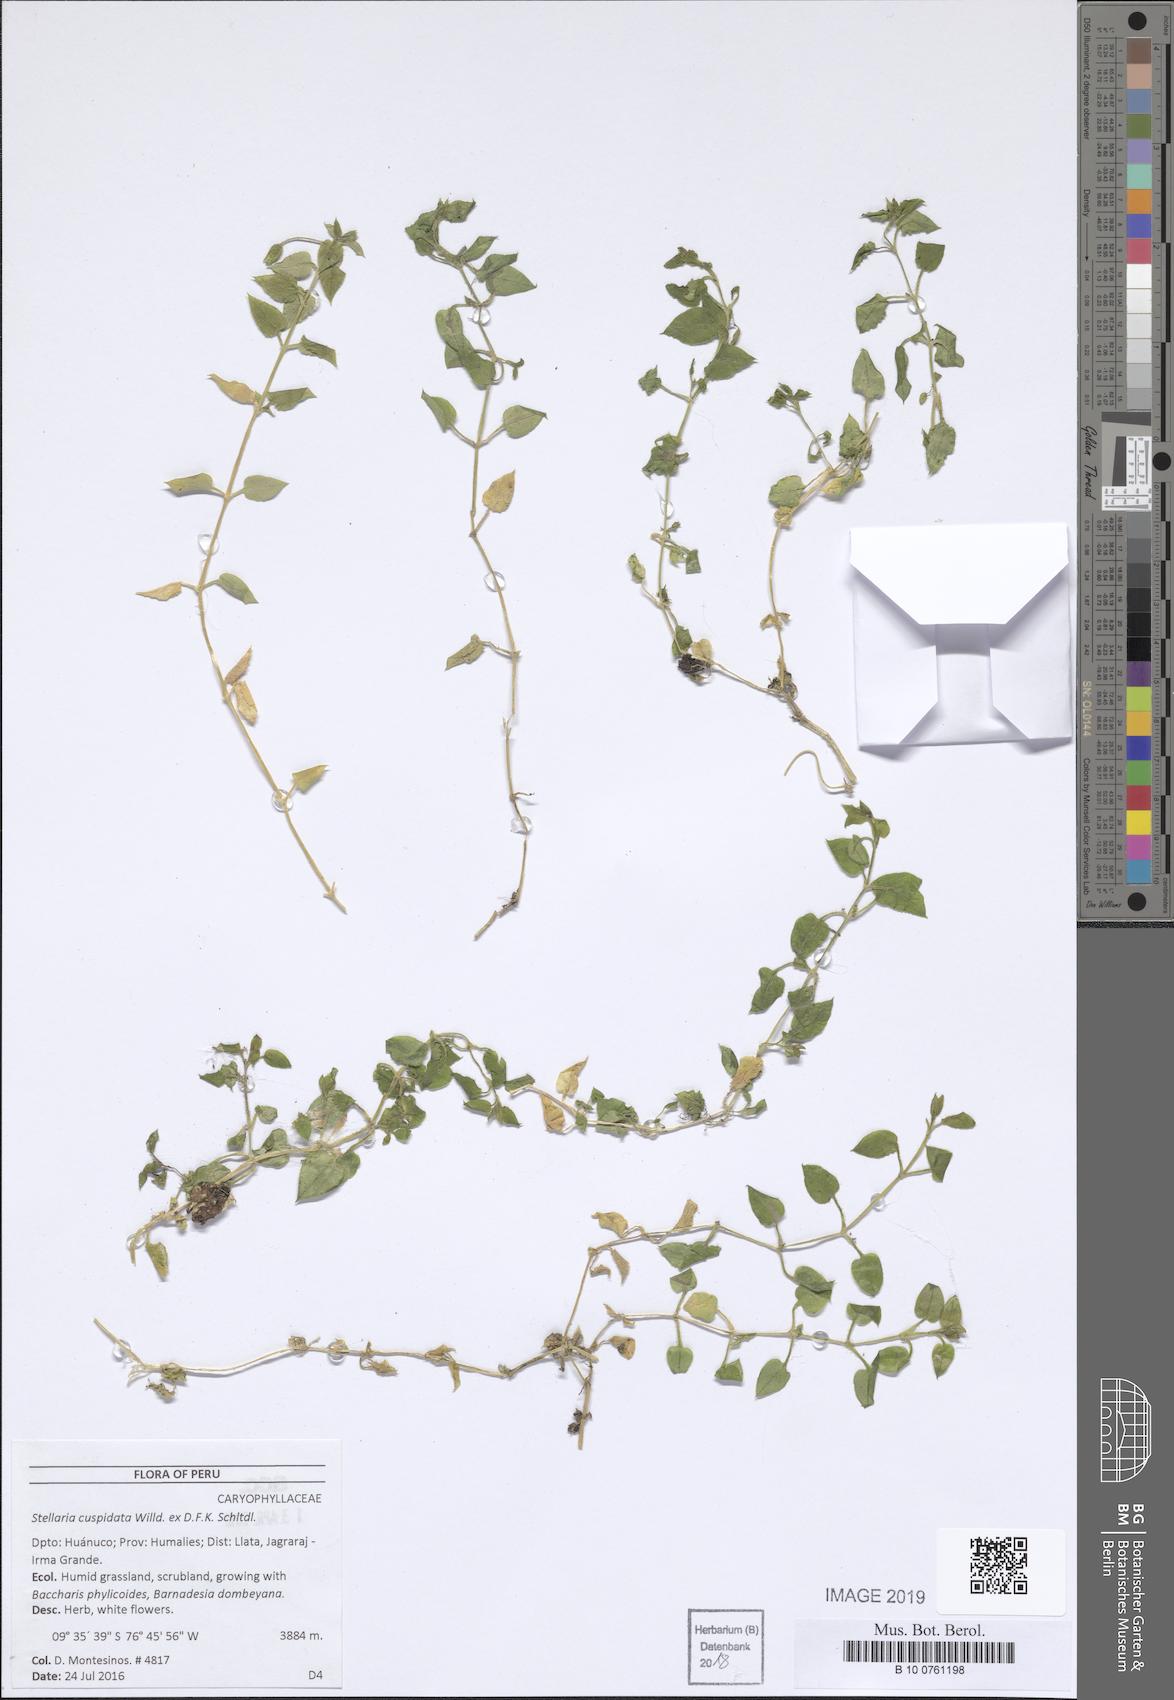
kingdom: Plantae
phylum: Tracheophyta
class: Magnoliopsida
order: Caryophyllales
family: Caryophyllaceae
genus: Stellaria
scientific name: Stellaria cuspidata
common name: Mexican chickweed
